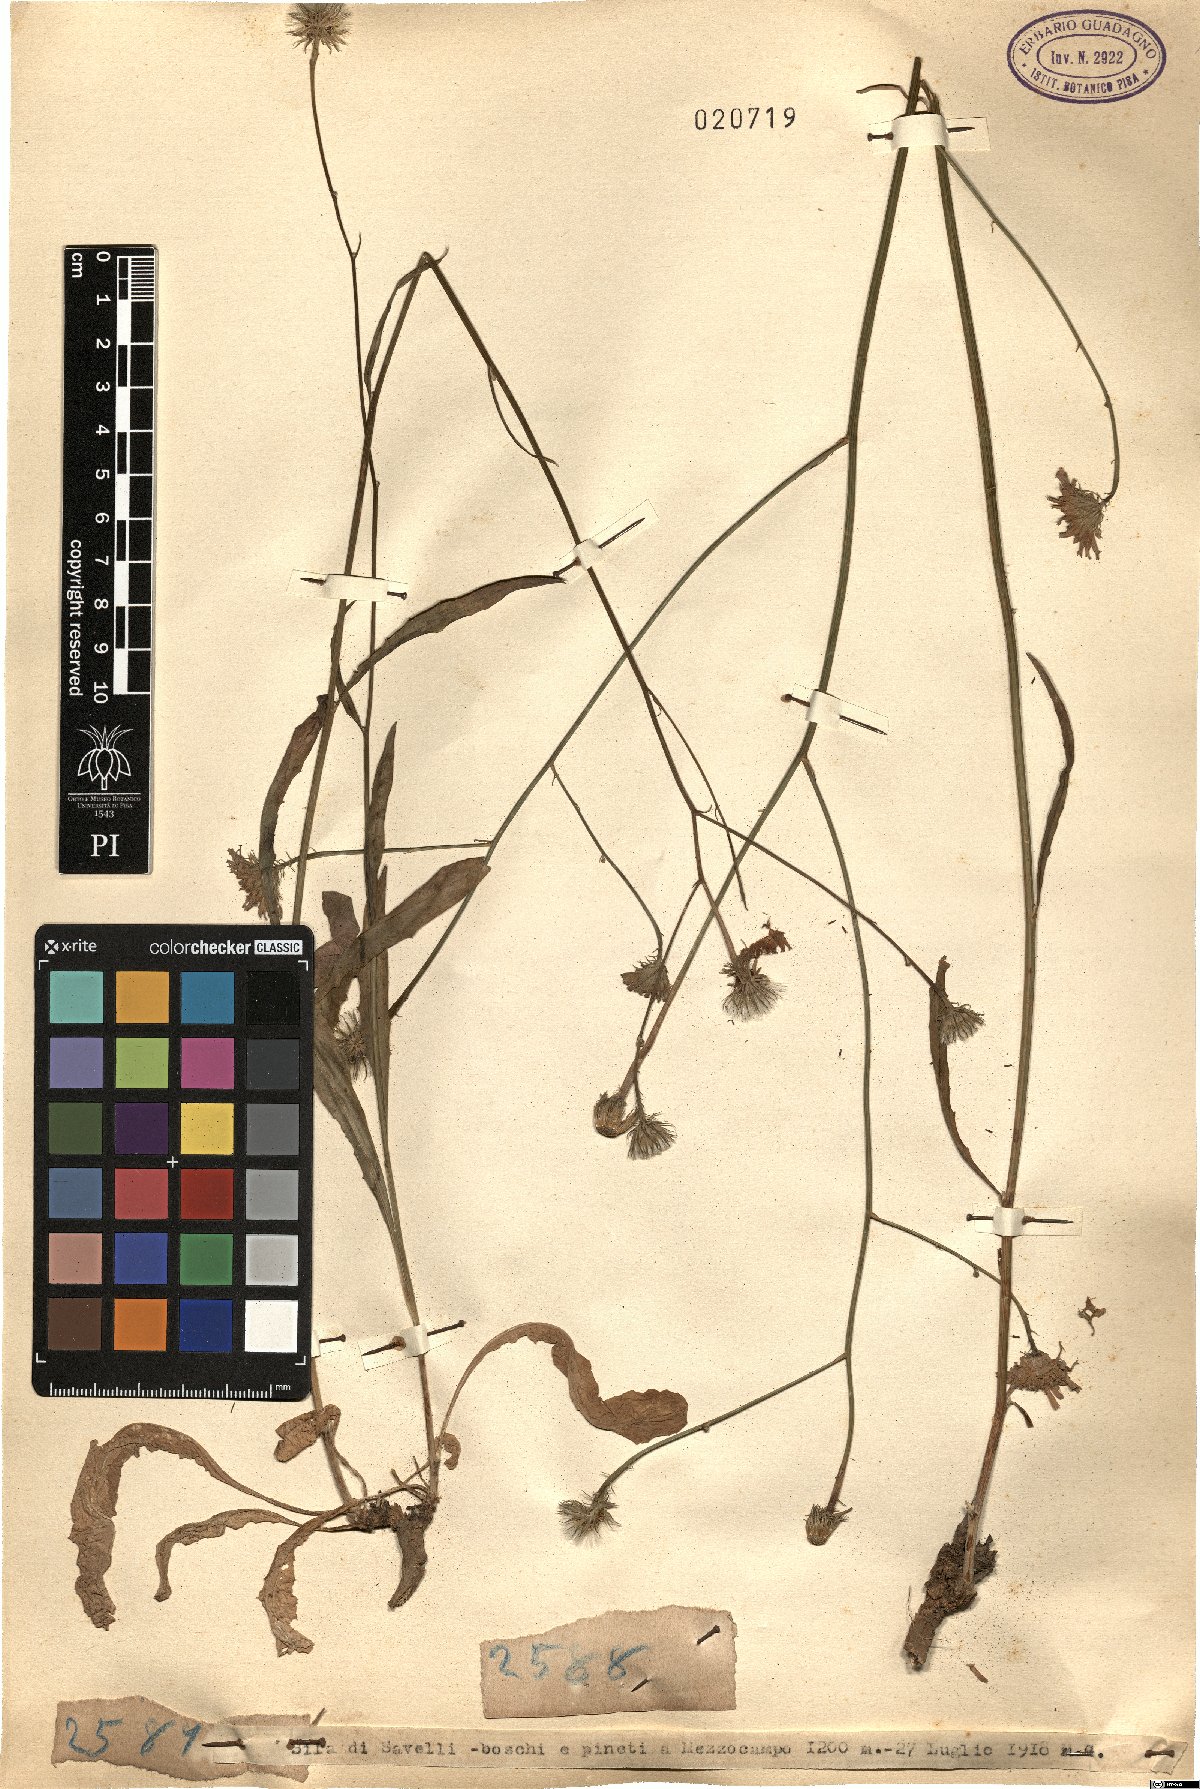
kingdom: Plantae
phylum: Tracheophyta
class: Magnoliopsida
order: Asterales
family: Asteraceae
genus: Tolpis
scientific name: Tolpis
